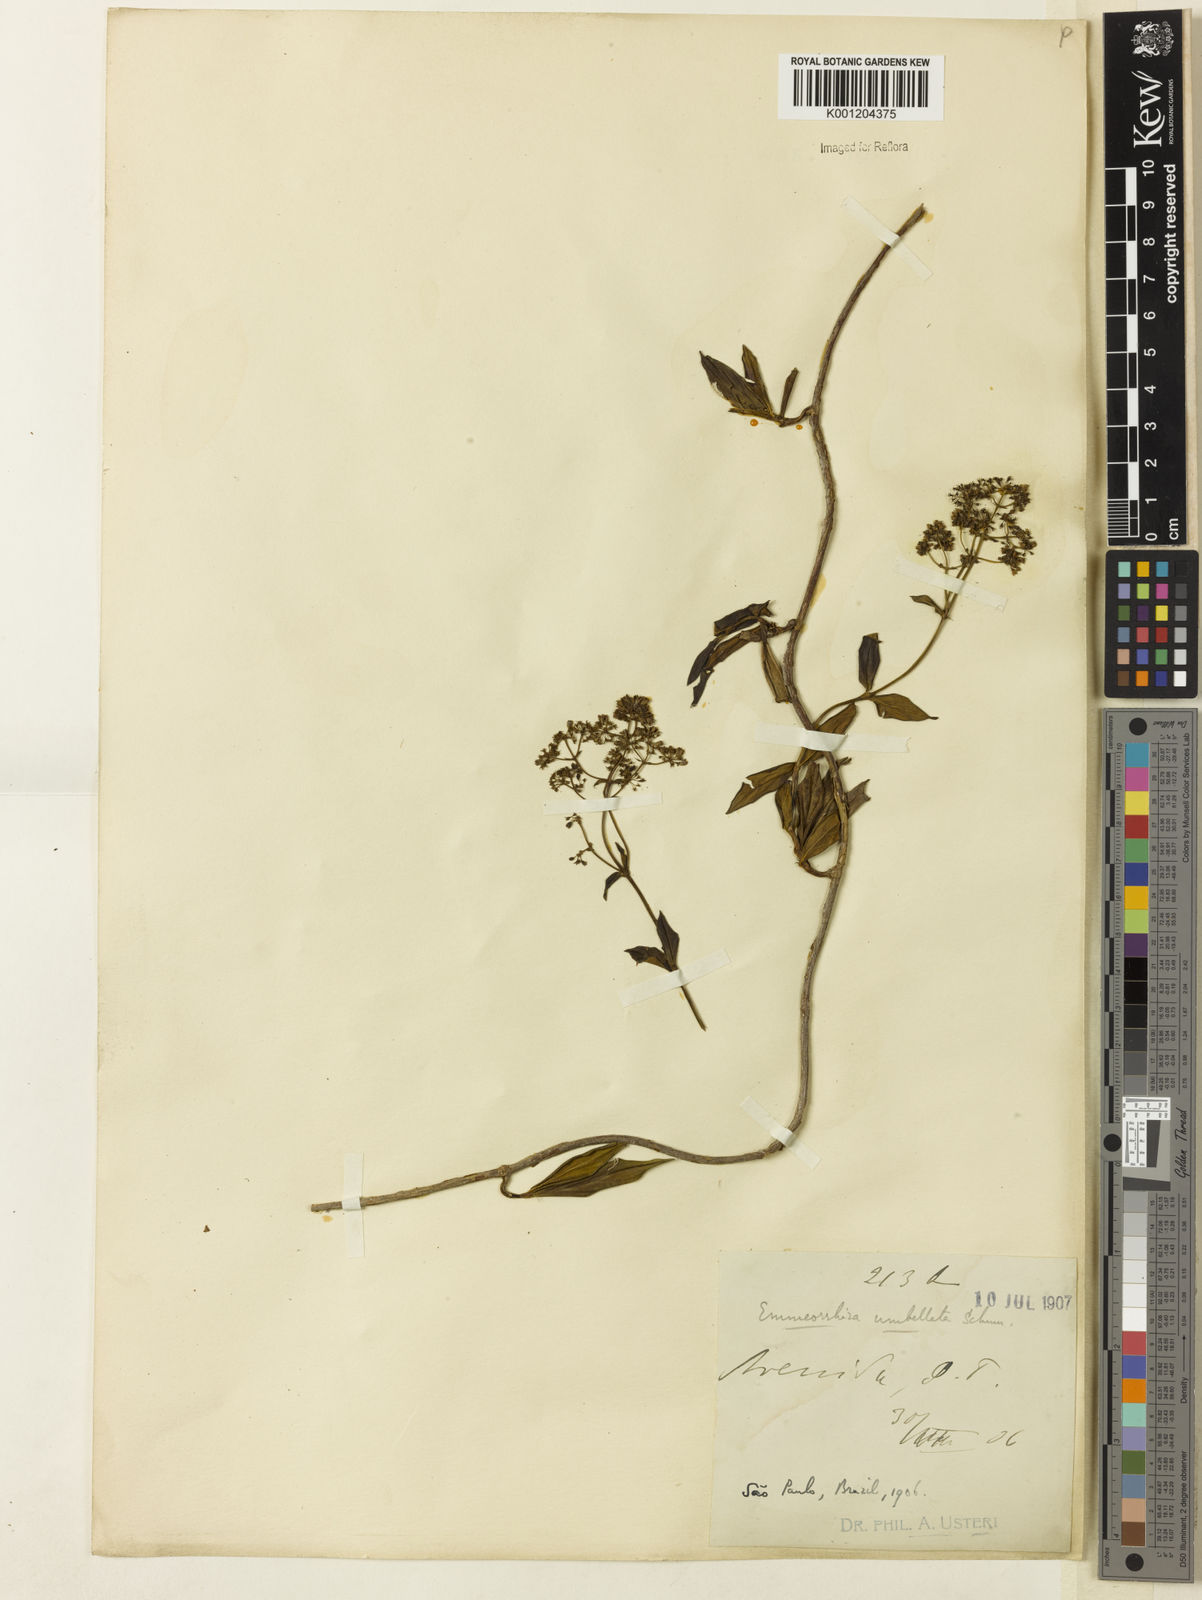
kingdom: Plantae
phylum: Tracheophyta
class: Magnoliopsida
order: Gentianales
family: Rubiaceae
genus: Emmeorhiza
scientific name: Emmeorhiza umbellata
